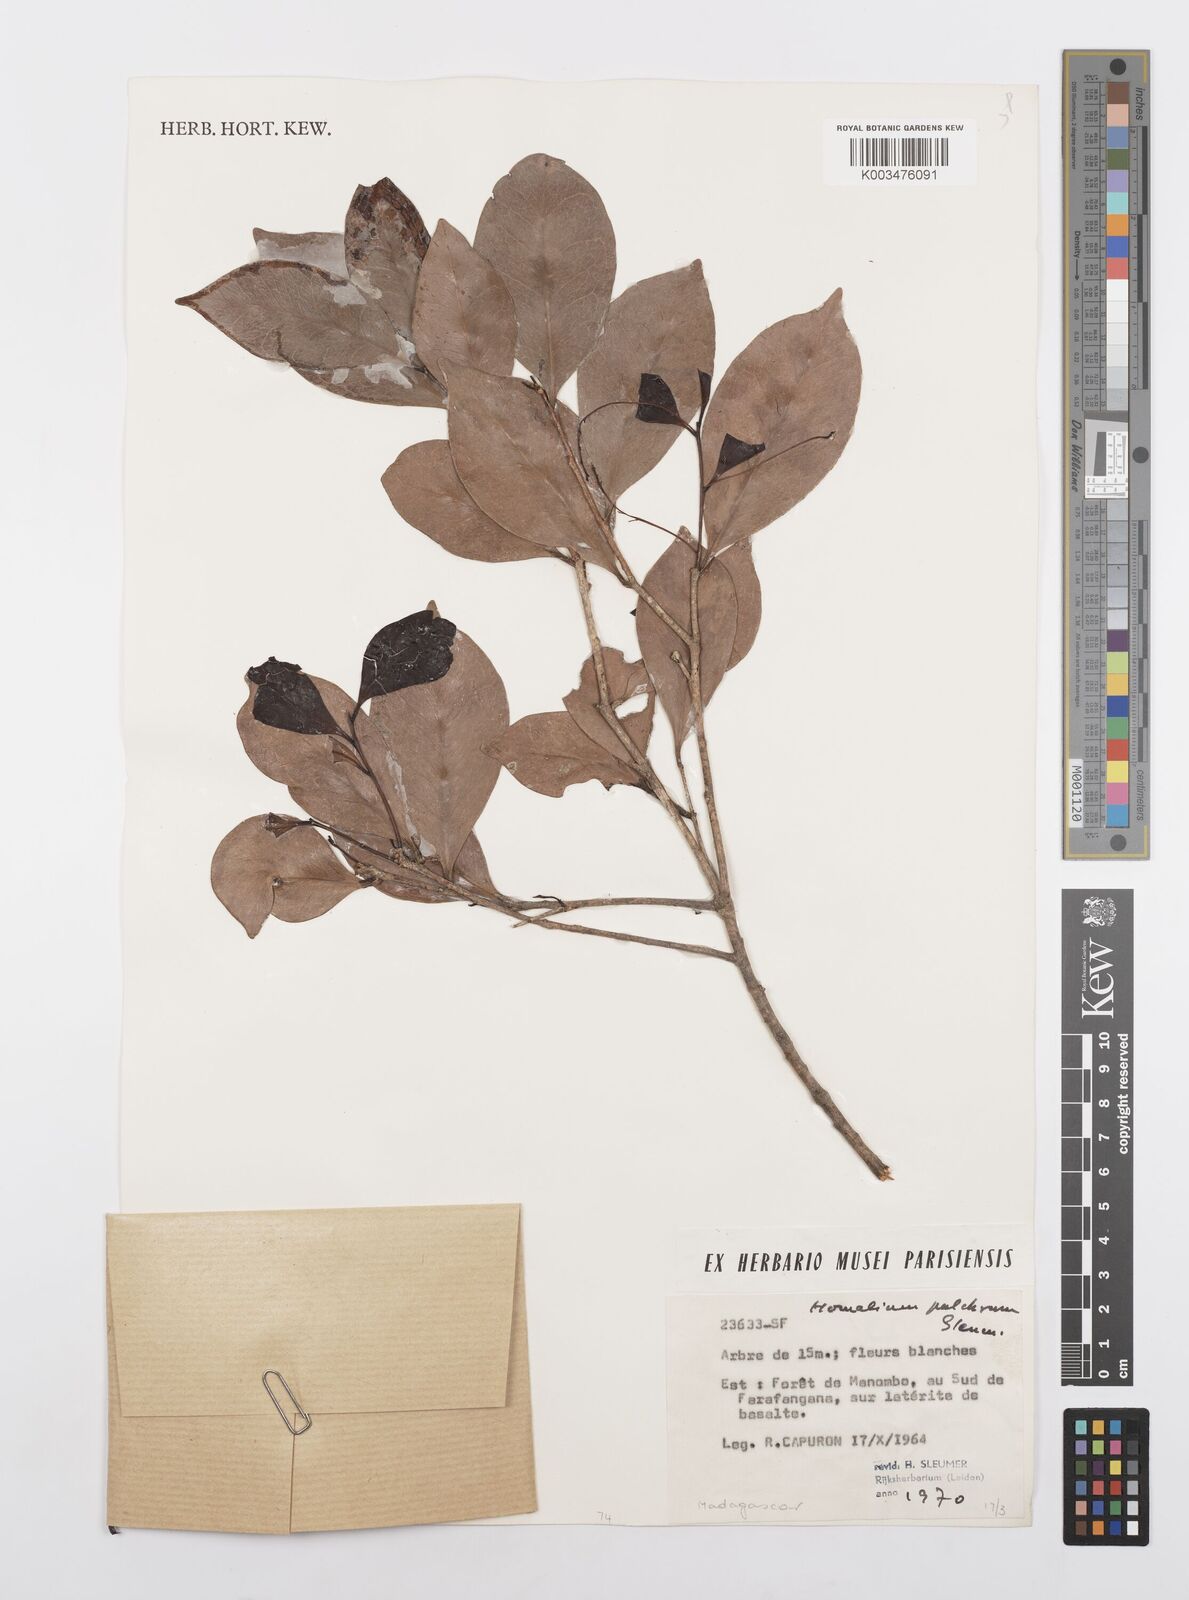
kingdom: Plantae
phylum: Tracheophyta
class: Magnoliopsida
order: Malpighiales
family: Salicaceae
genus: Homalium
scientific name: Homalium pulchrum
